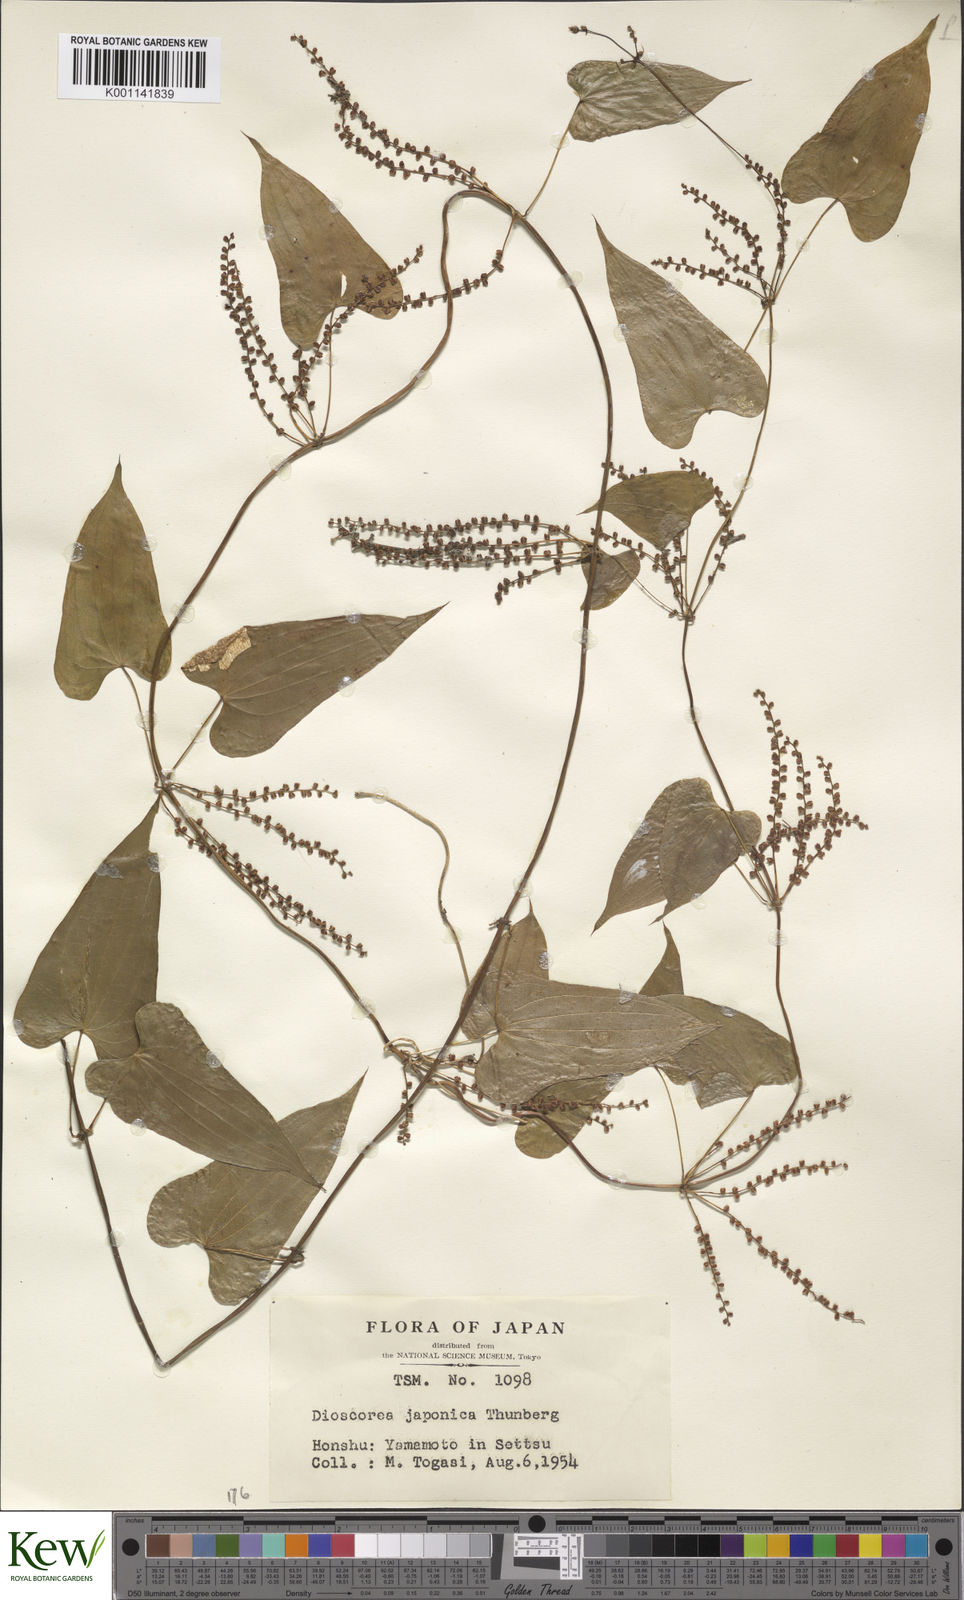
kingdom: Plantae
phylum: Tracheophyta
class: Liliopsida
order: Dioscoreales
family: Dioscoreaceae
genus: Dioscorea
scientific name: Dioscorea japonica
